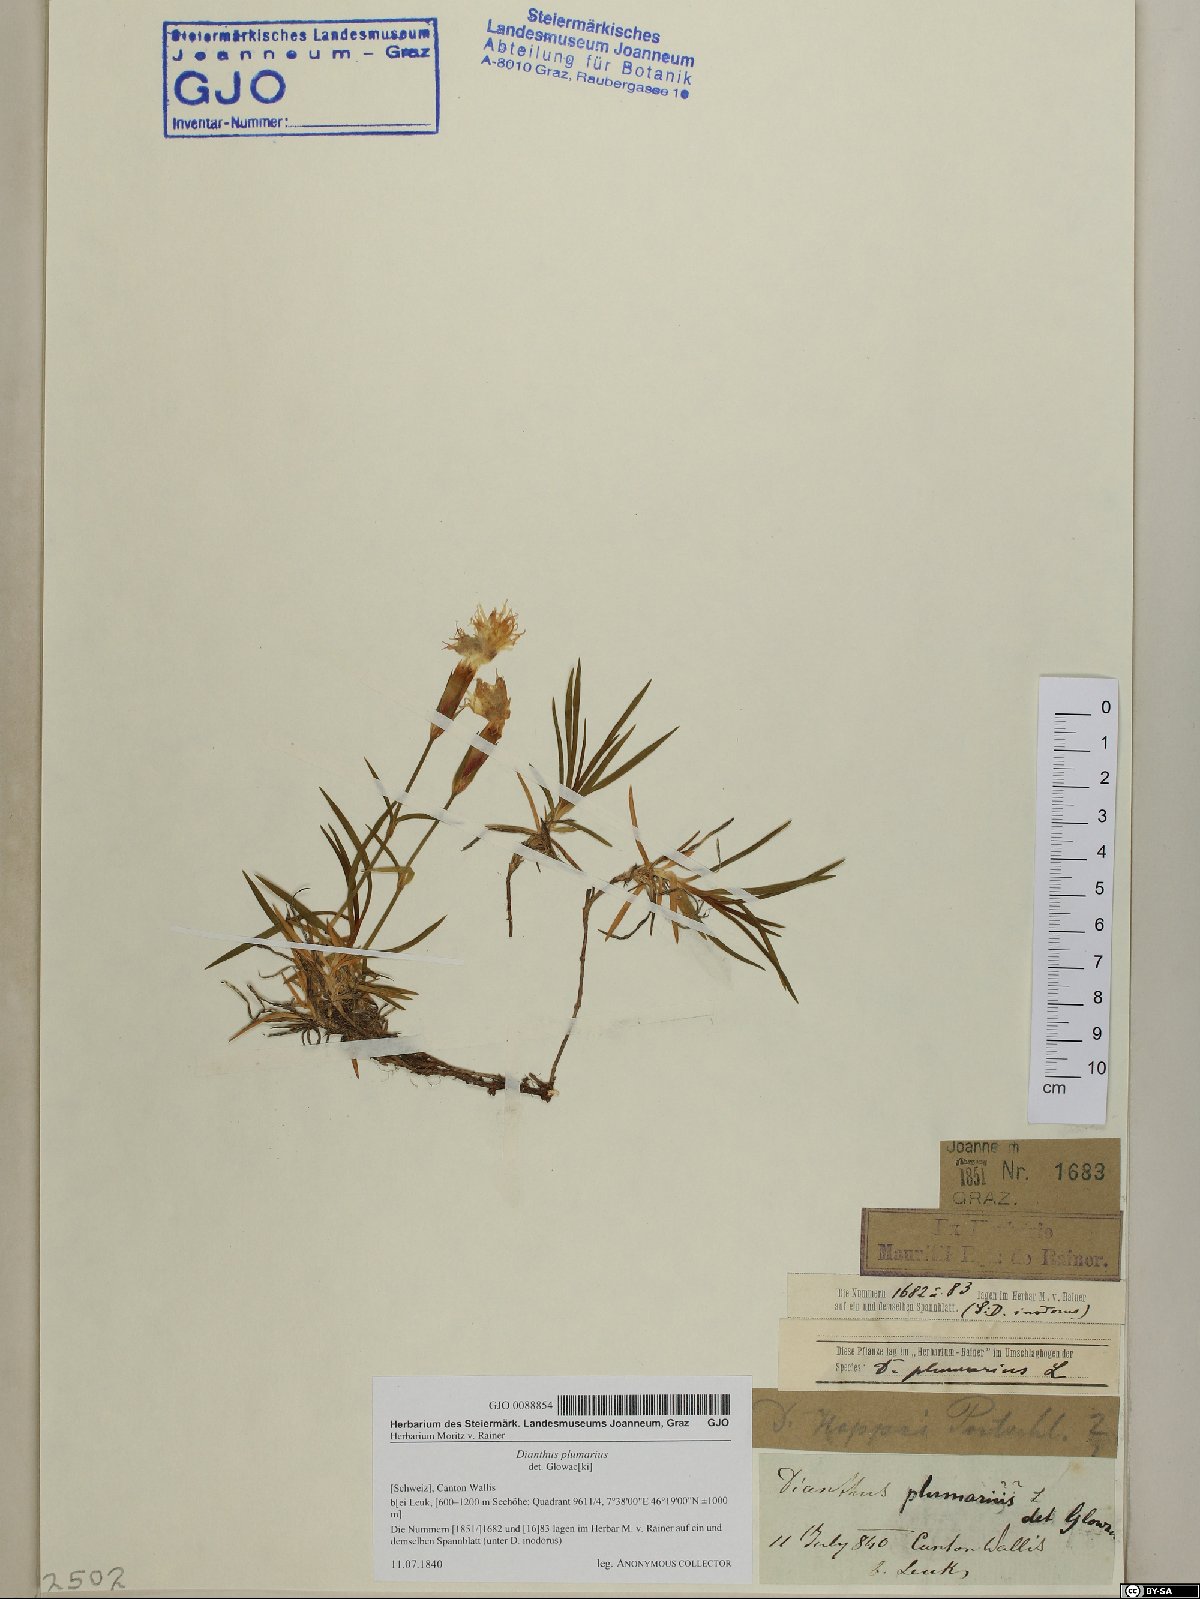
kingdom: Plantae
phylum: Tracheophyta
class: Magnoliopsida
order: Caryophyllales
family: Caryophyllaceae
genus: Dianthus
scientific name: Dianthus plumarius
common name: Pink
